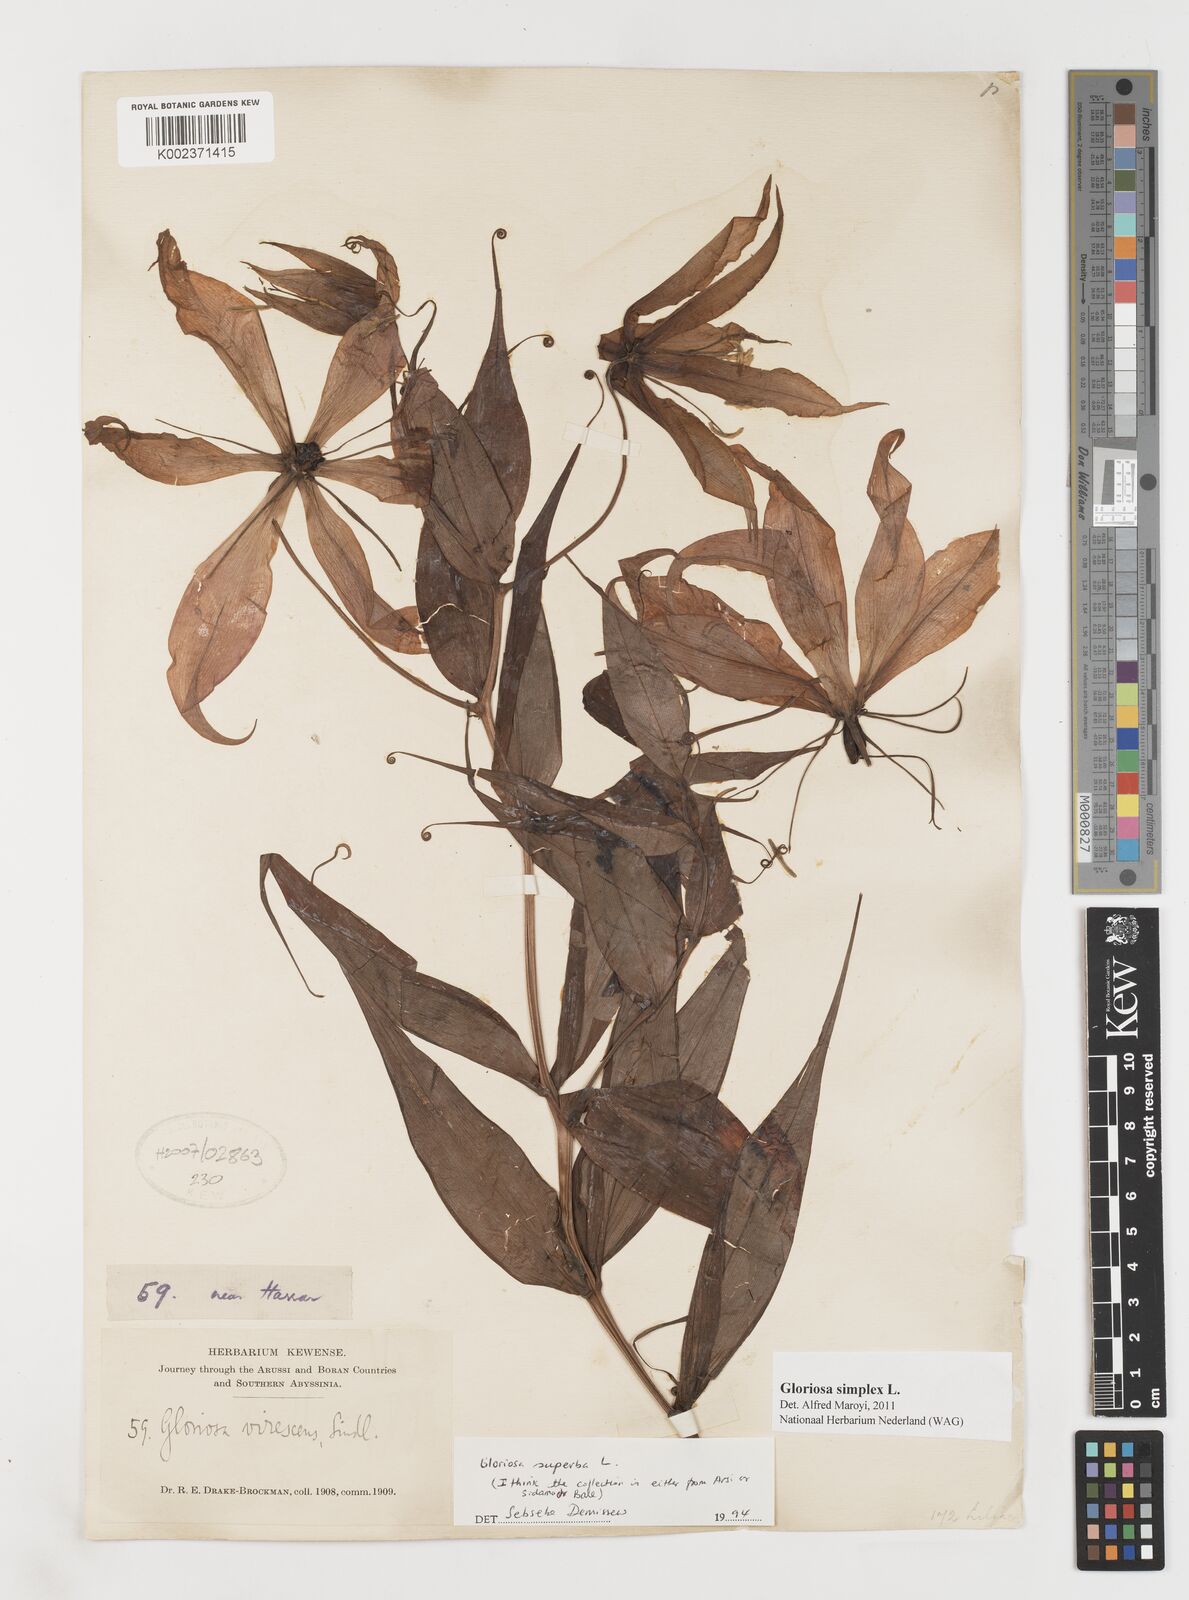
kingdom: Plantae
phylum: Tracheophyta
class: Liliopsida
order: Liliales
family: Colchicaceae
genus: Gloriosa
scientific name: Gloriosa simplex
